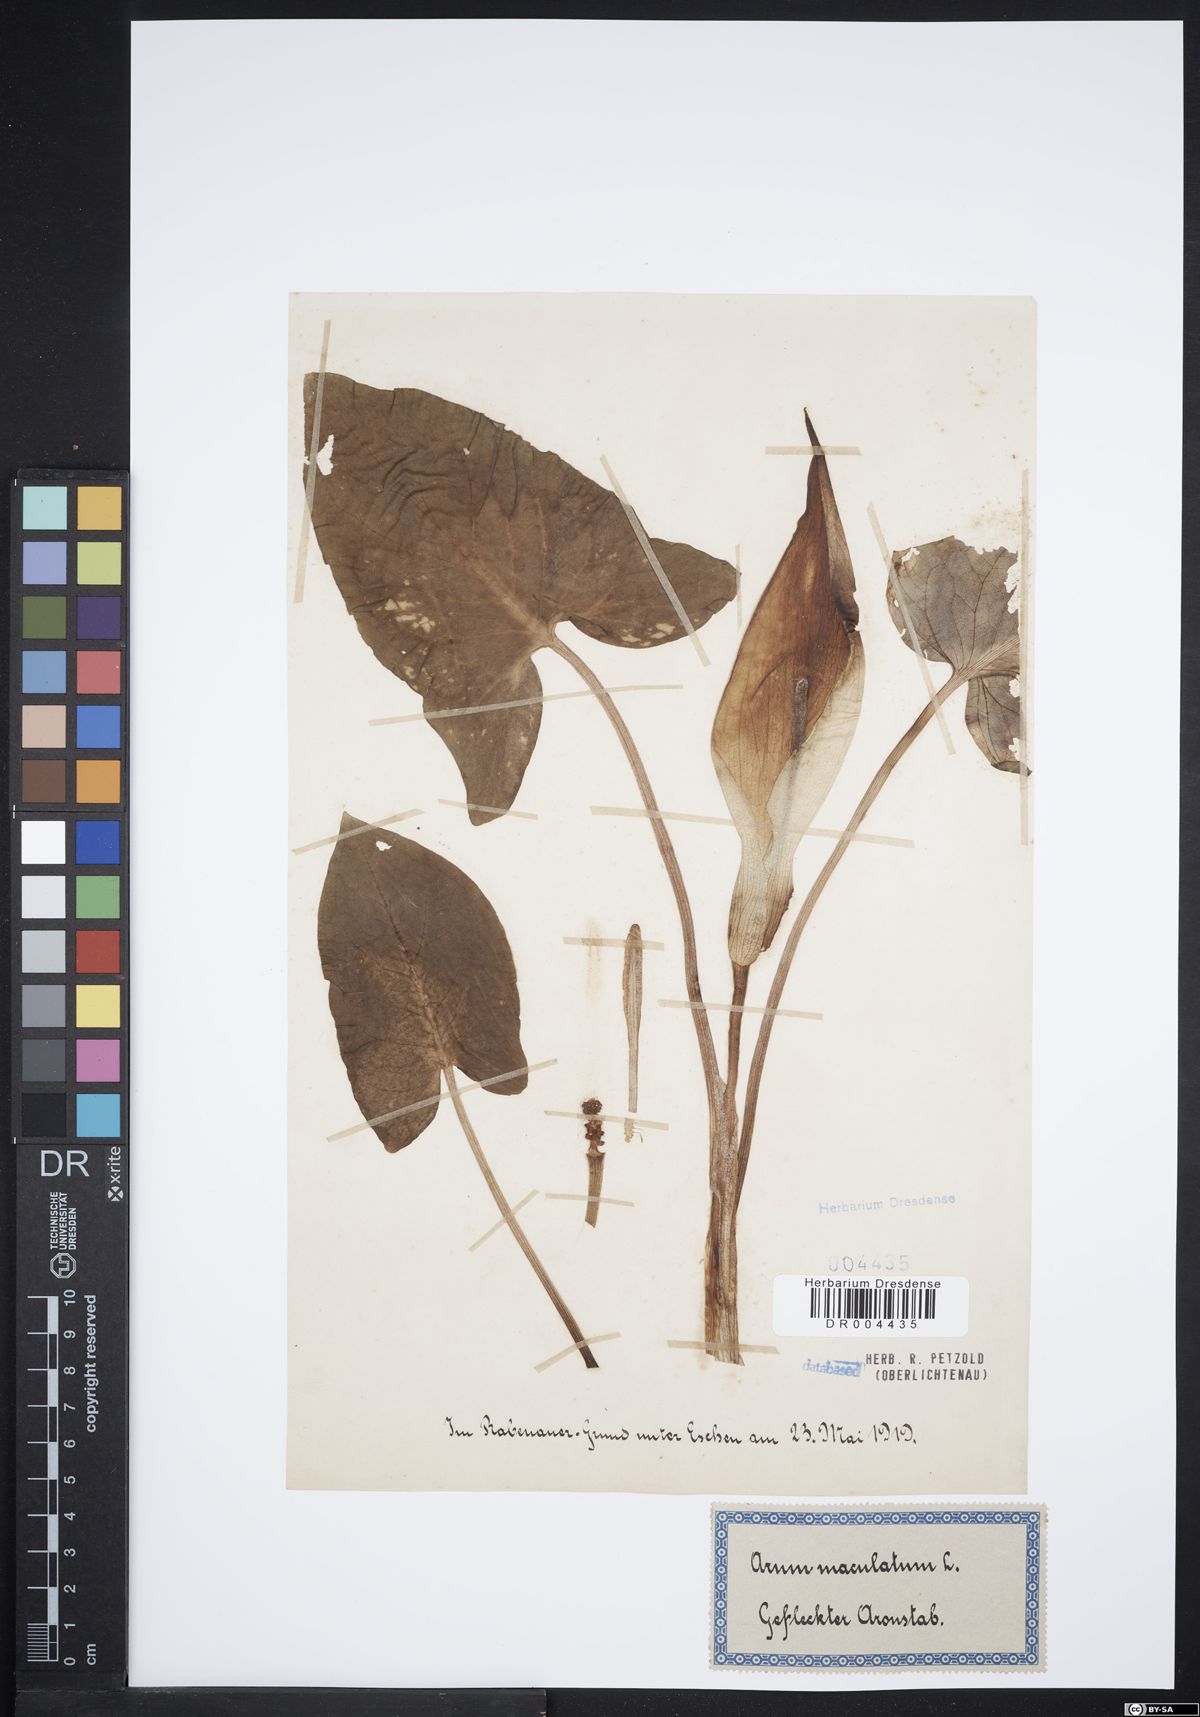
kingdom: Plantae
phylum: Tracheophyta
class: Liliopsida
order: Alismatales
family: Araceae
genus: Arum
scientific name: Arum maculatum
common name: Lords-and-ladies
